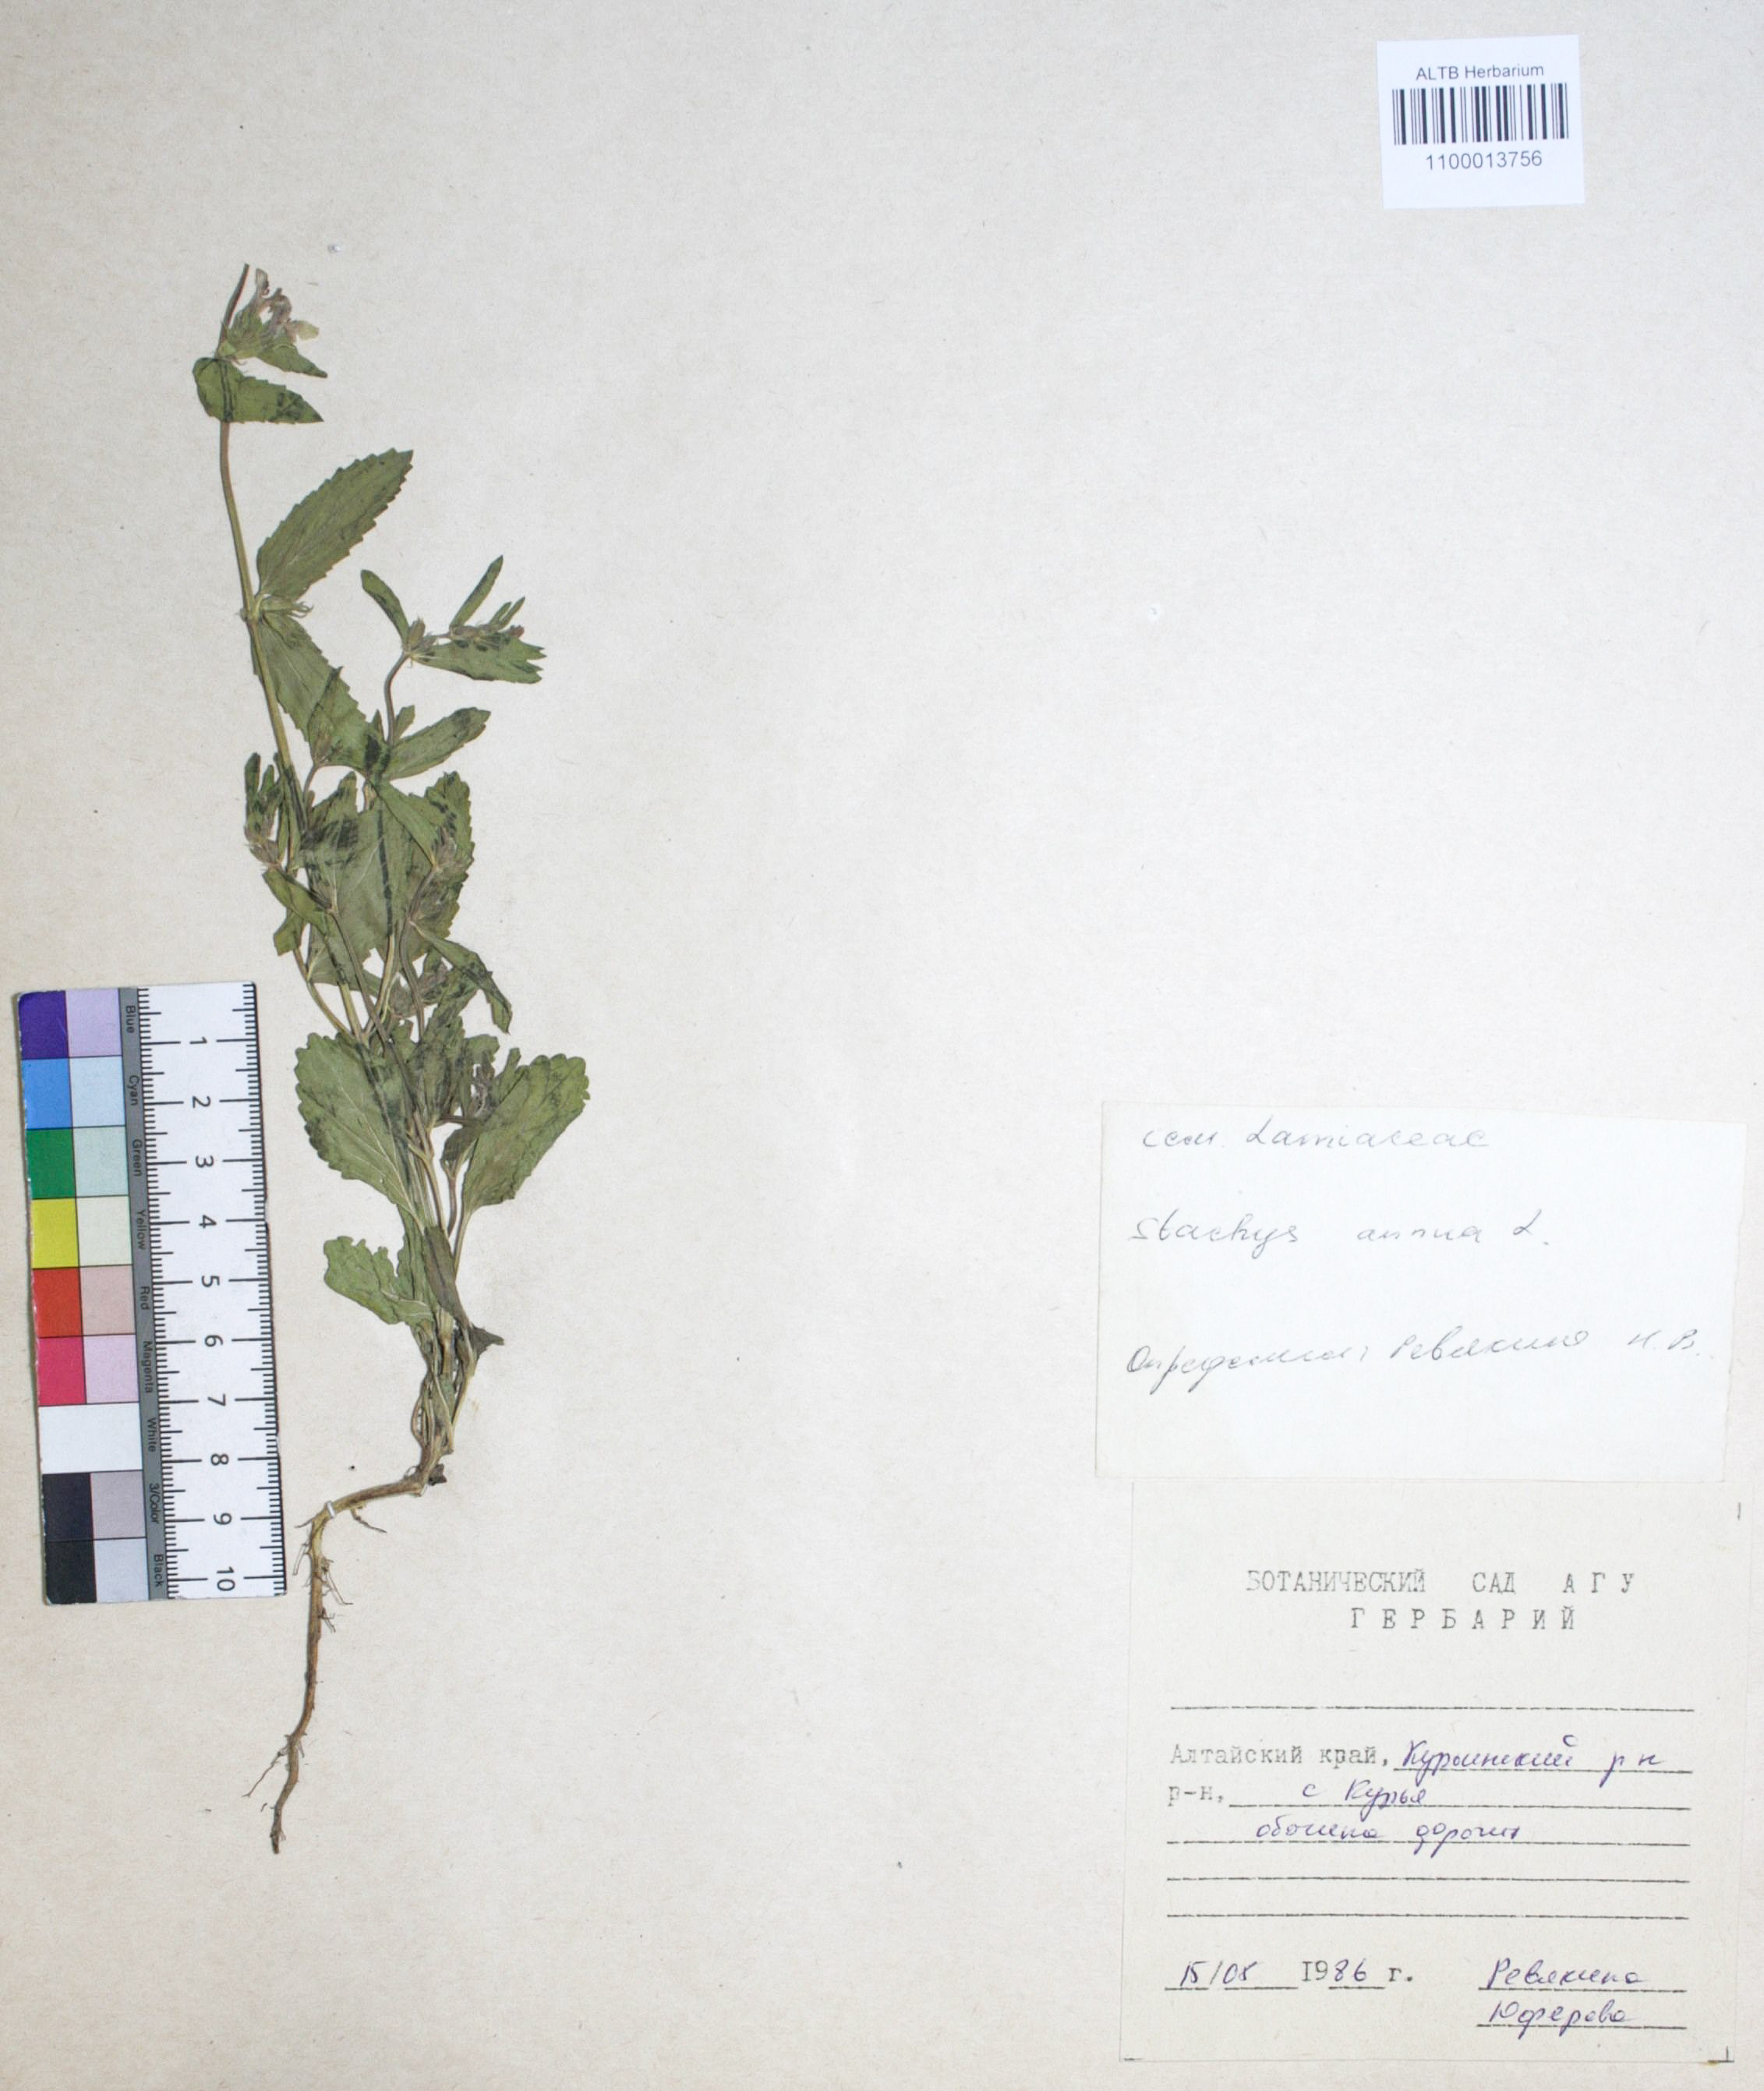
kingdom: Plantae
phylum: Tracheophyta
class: Magnoliopsida
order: Lamiales
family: Lamiaceae
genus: Stachys
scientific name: Stachys annua
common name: Annual yellow-woundwort
